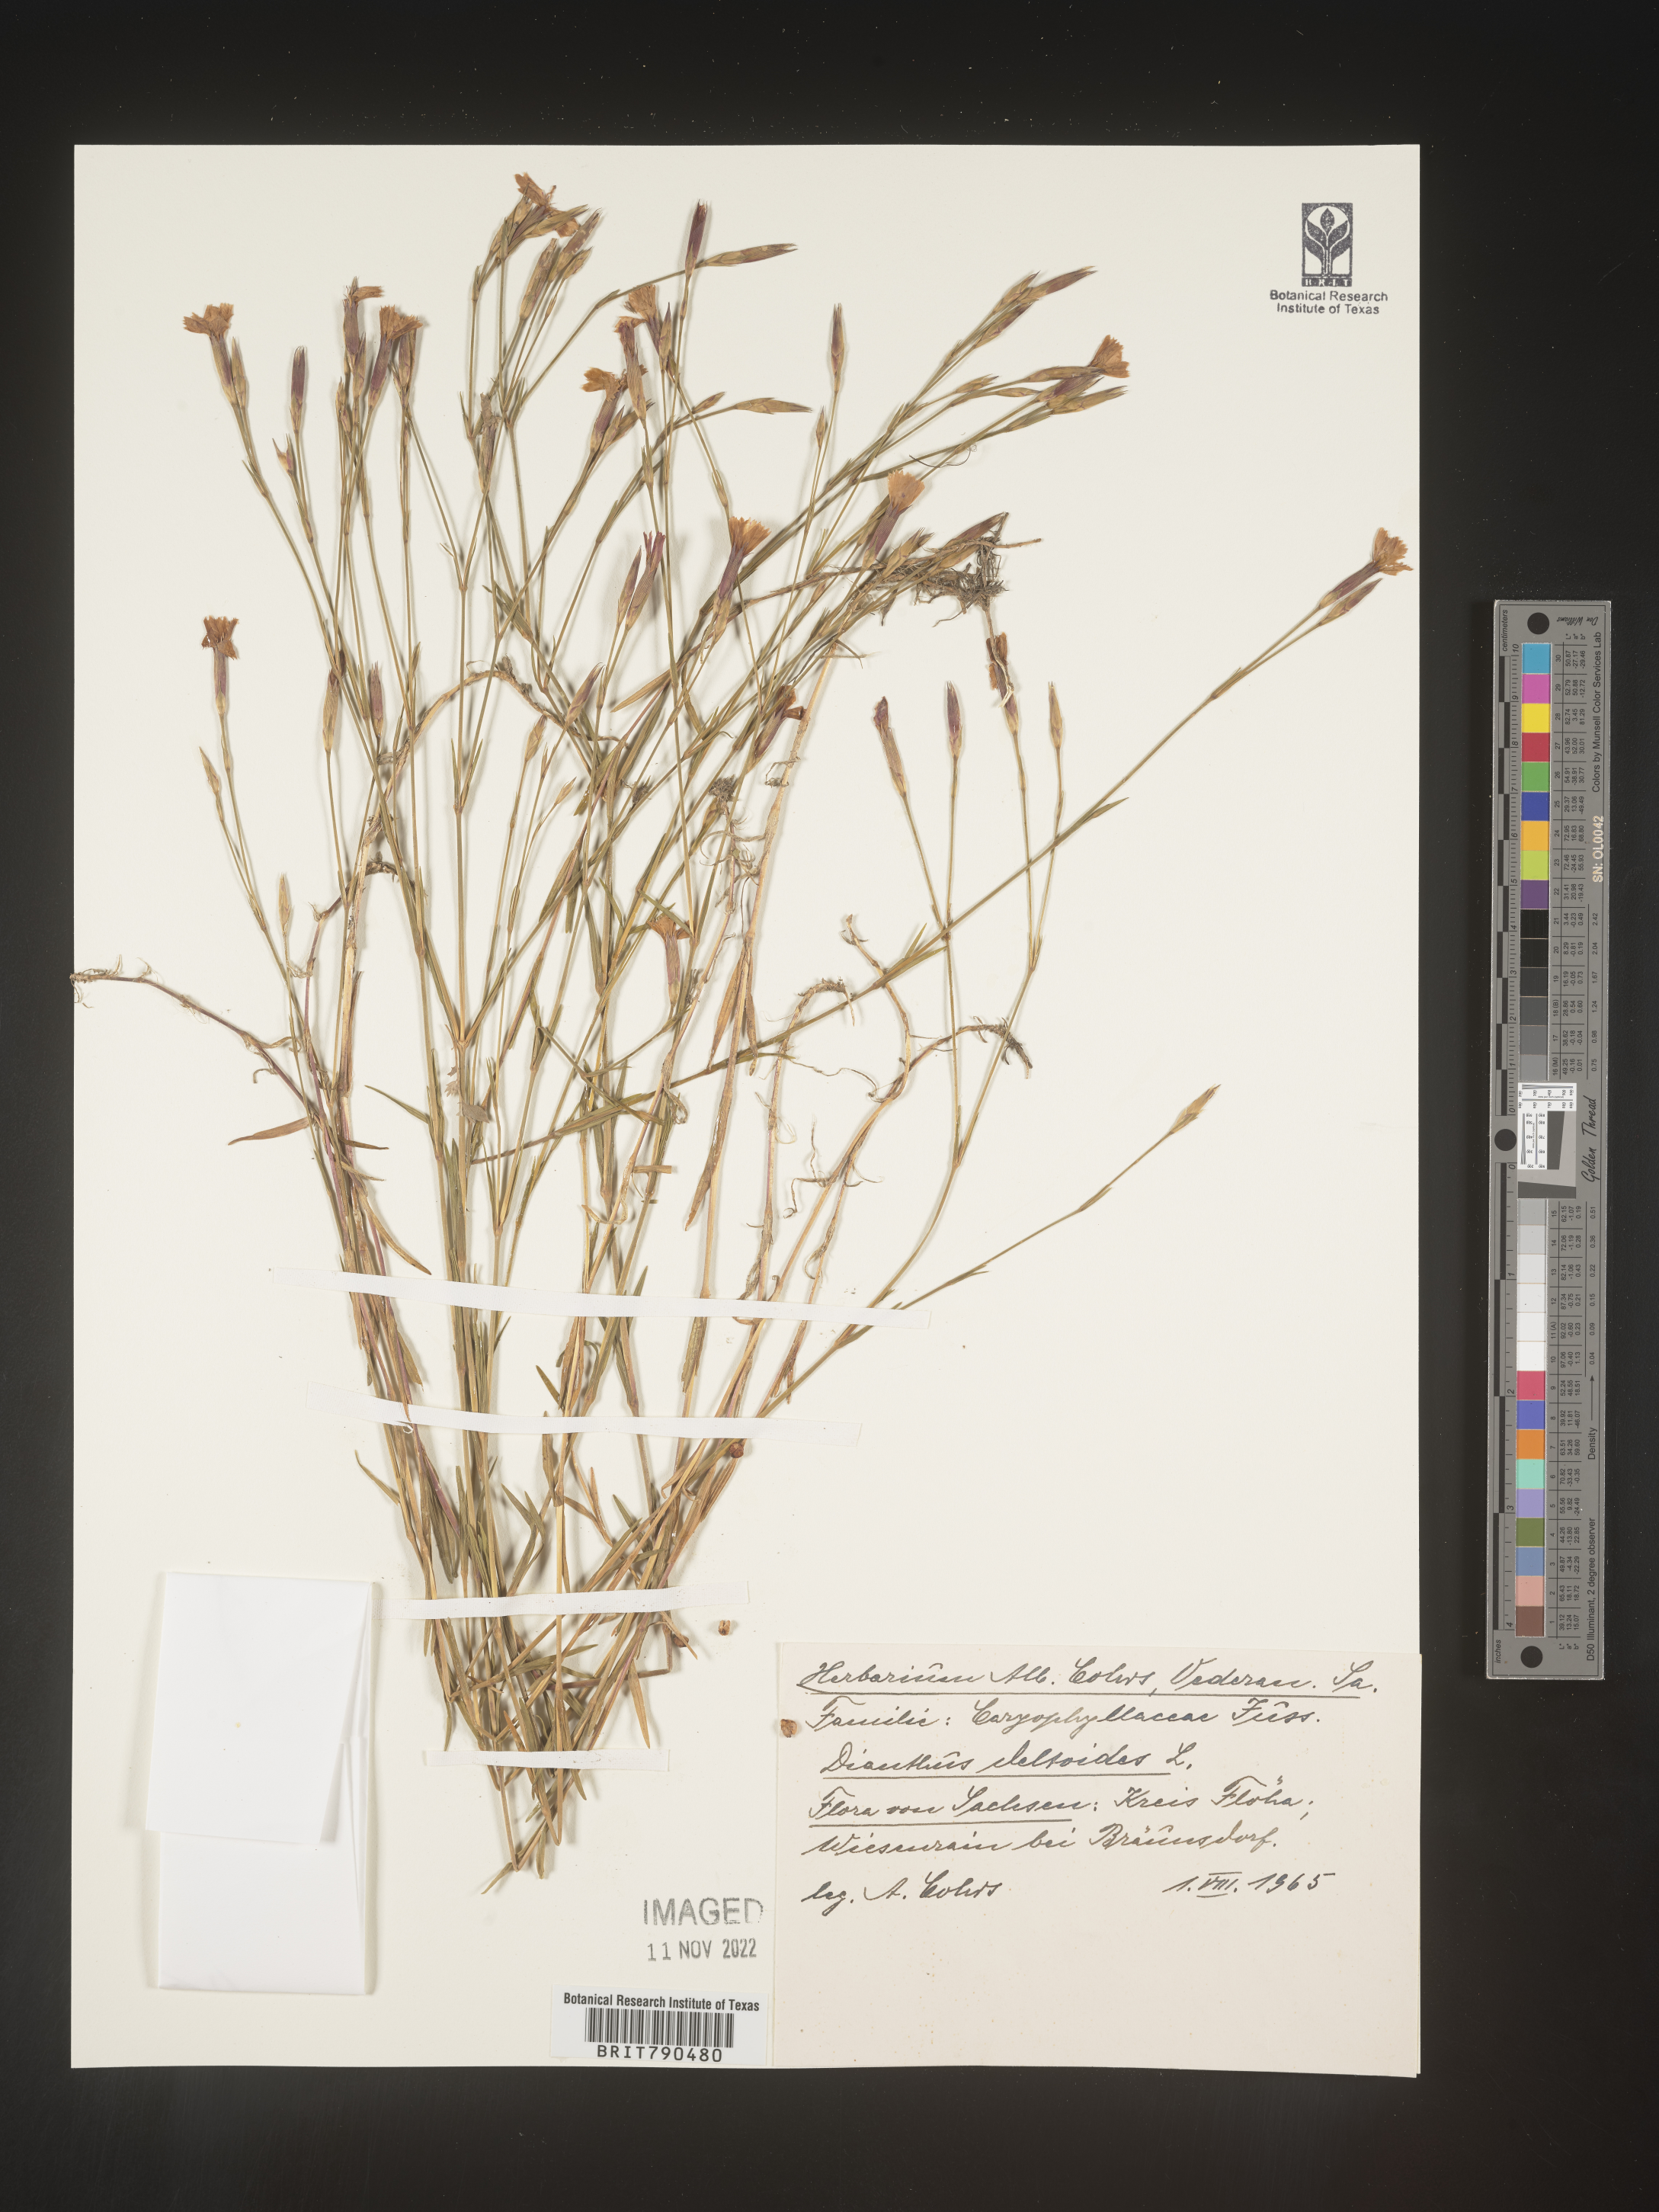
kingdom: Plantae
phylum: Tracheophyta
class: Magnoliopsida
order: Caryophyllales
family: Caryophyllaceae
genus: Dianthus
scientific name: Dianthus deltoides
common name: Maiden pink
